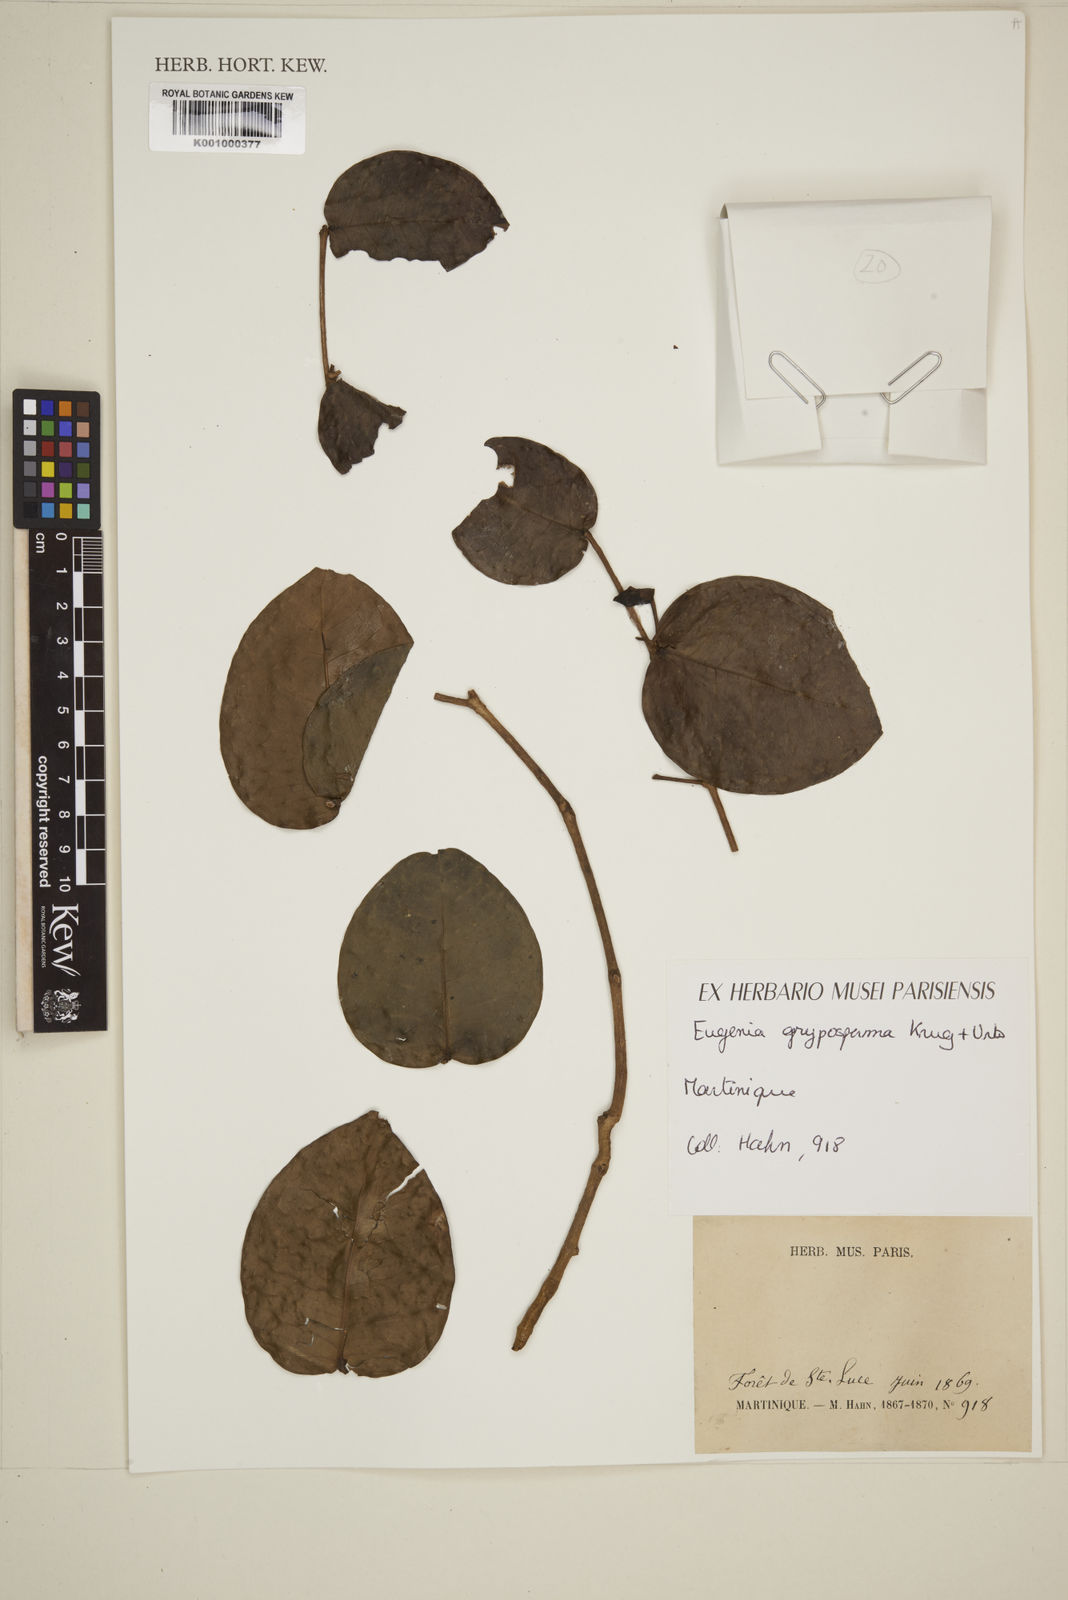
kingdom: Plantae
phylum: Tracheophyta
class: Magnoliopsida
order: Myrtales
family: Myrtaceae
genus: Eugenia
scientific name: Eugenia gryposperma
